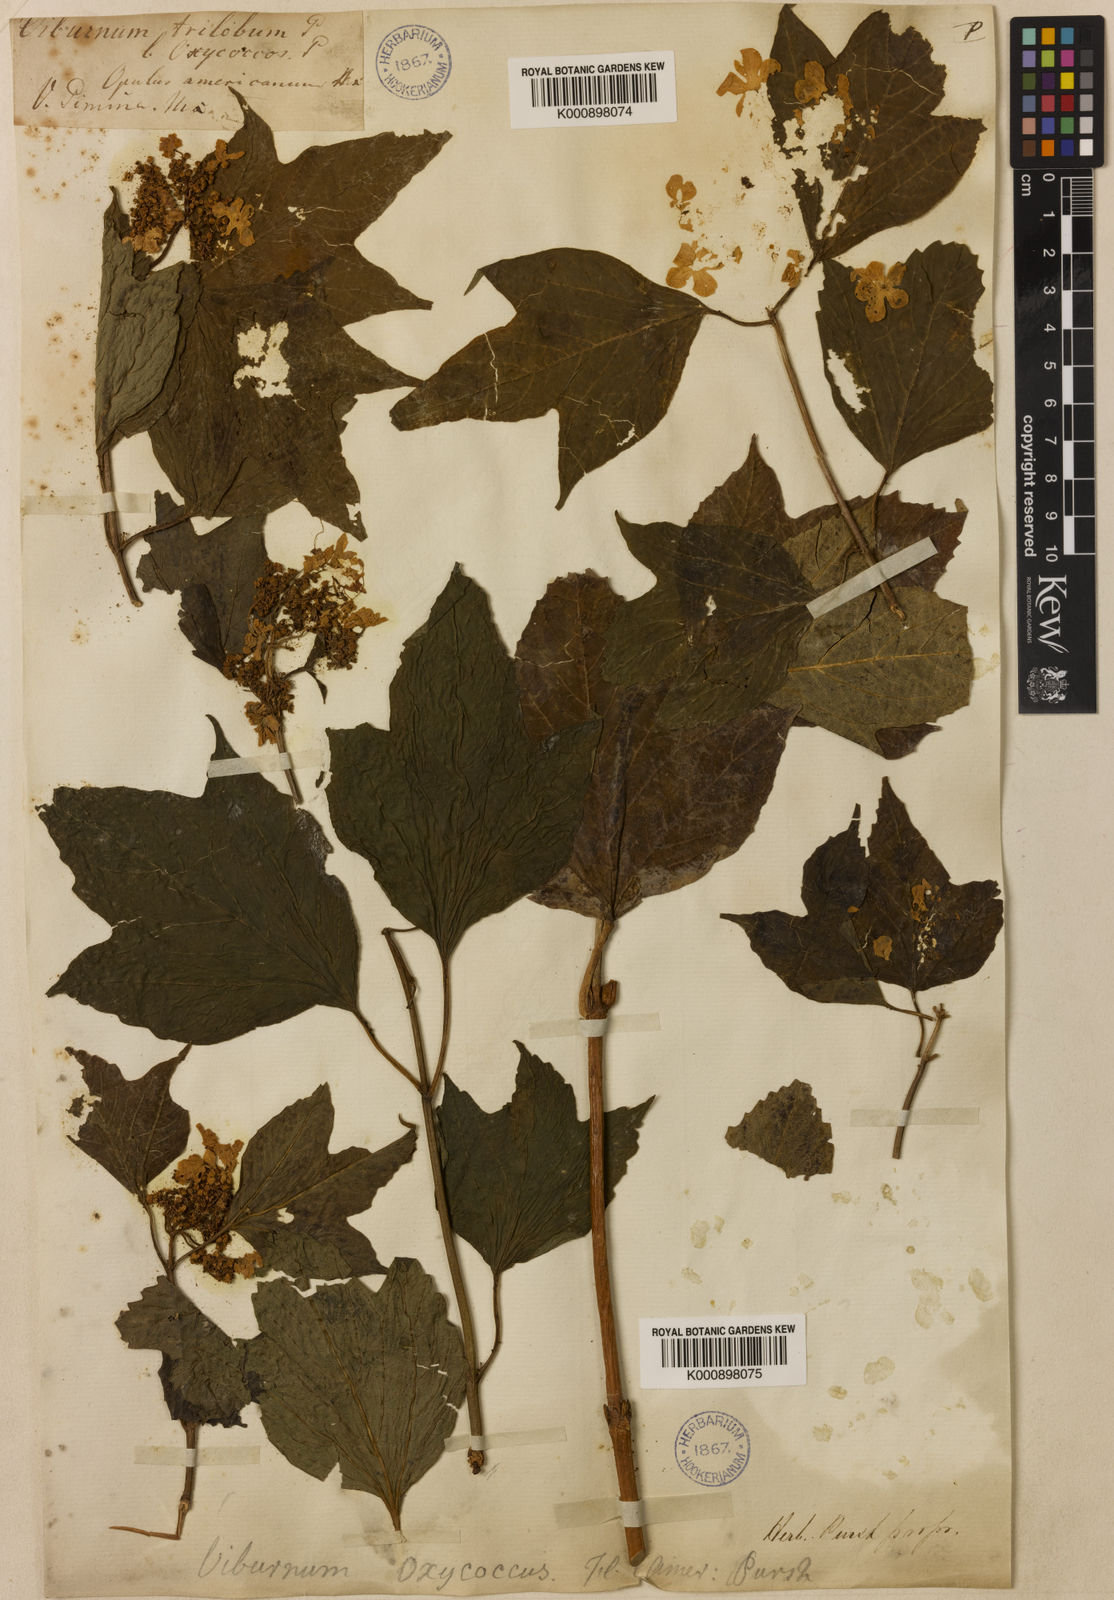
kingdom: Plantae
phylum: Tracheophyta
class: Magnoliopsida
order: Dipsacales
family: Viburnaceae
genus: Viburnum
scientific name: Viburnum trilobum
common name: American cranberrybush
